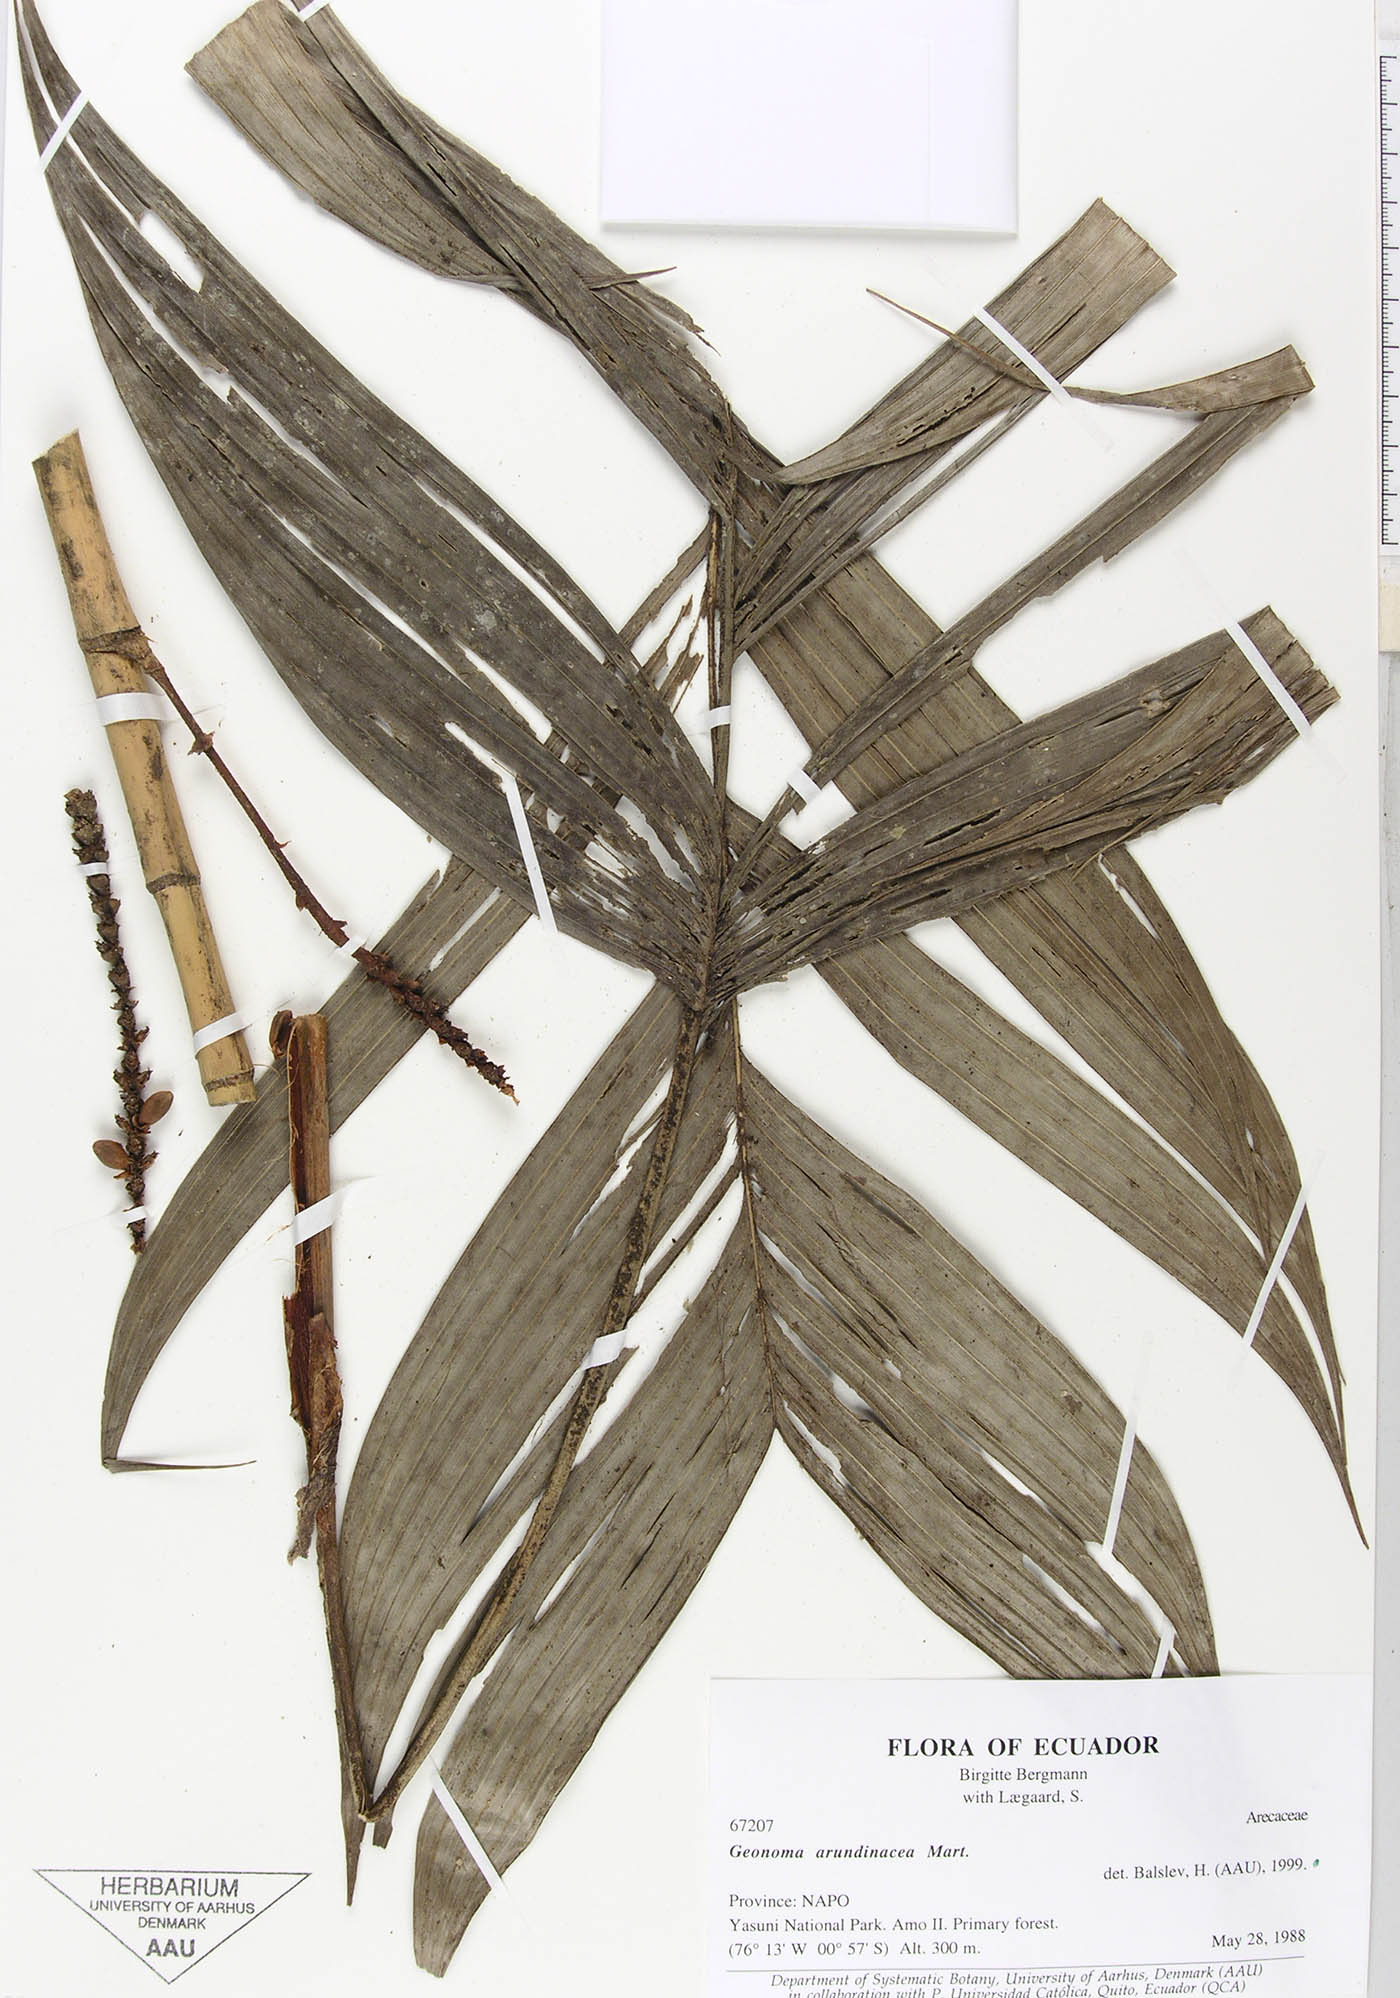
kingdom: Plantae
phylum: Tracheophyta
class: Liliopsida
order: Arecales
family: Arecaceae
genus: Geonoma
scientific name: Geonoma stricta
